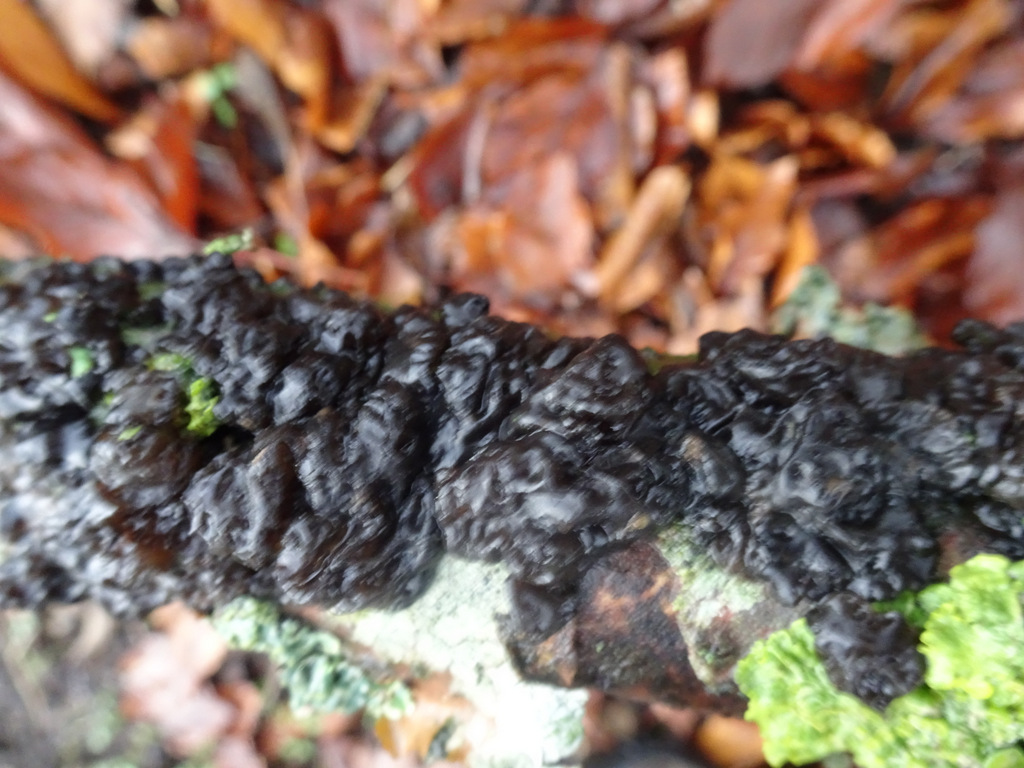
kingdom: Fungi
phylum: Basidiomycota
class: Agaricomycetes
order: Auriculariales
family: Auriculariaceae
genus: Exidia
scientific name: Exidia nigricans
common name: almindelig bævretop
